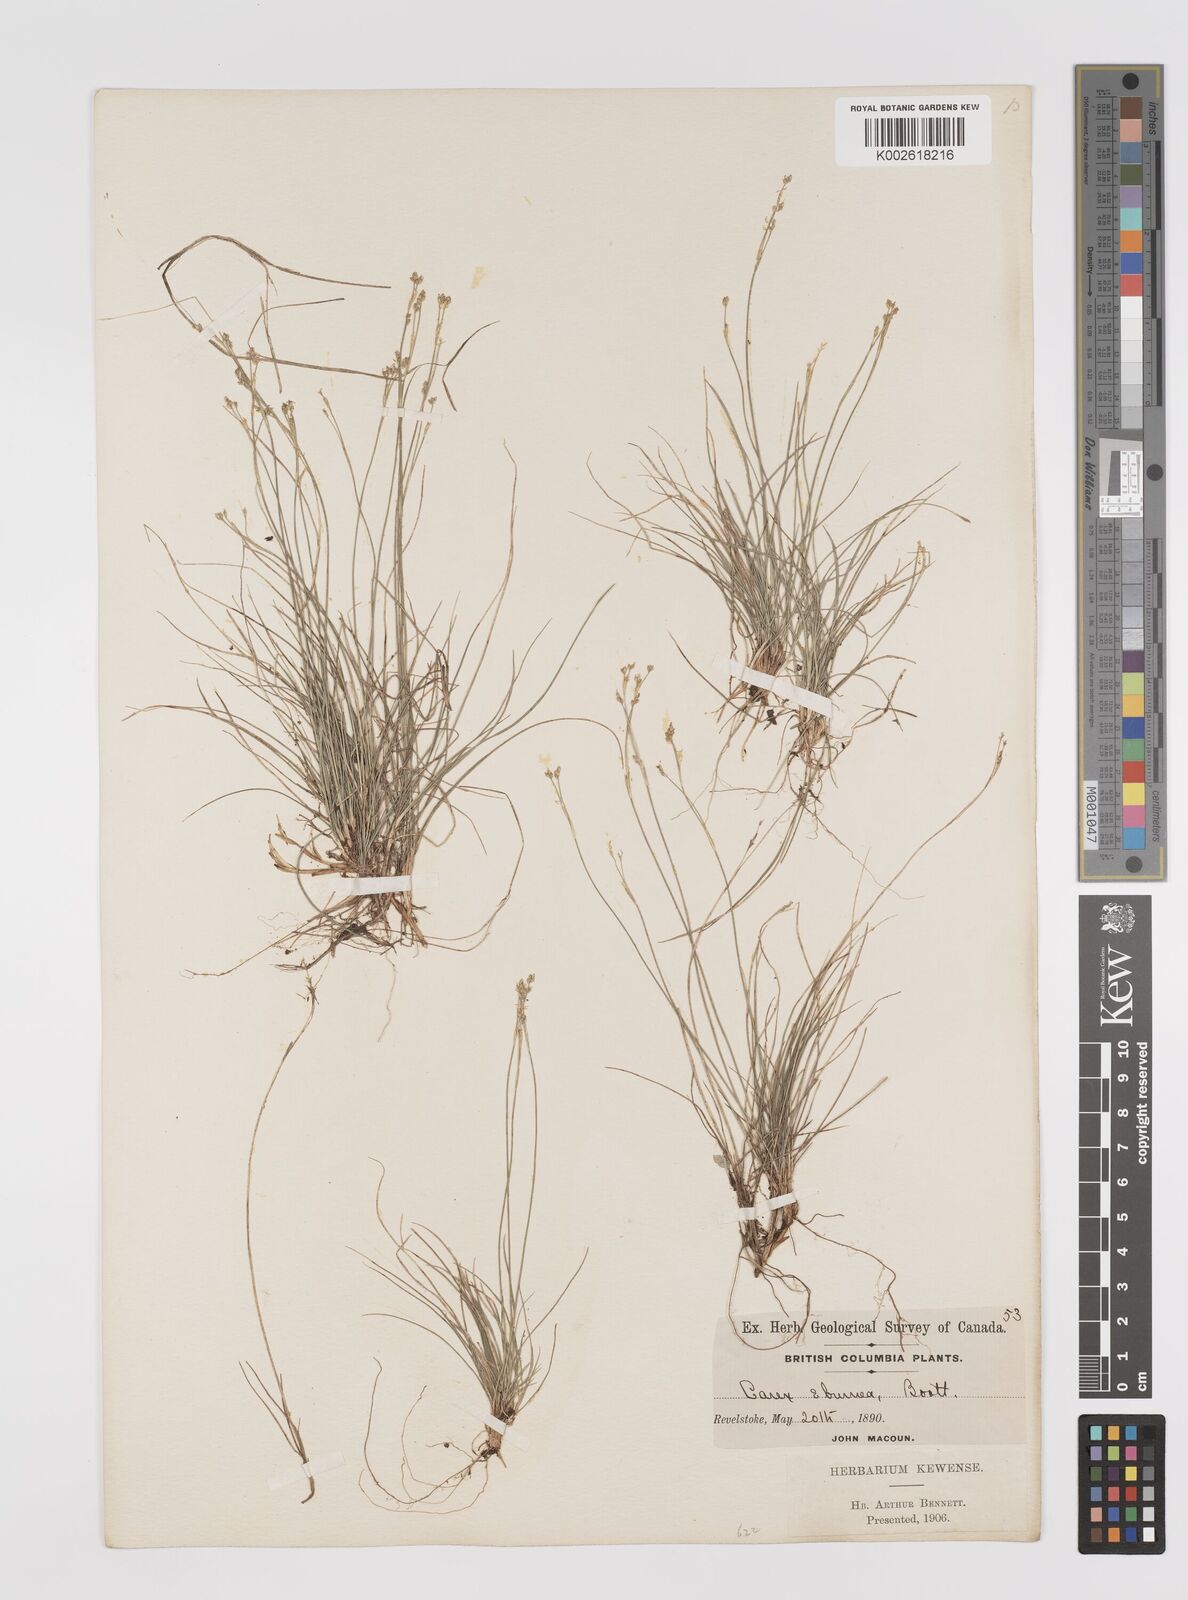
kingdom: Plantae
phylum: Tracheophyta
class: Liliopsida
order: Poales
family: Cyperaceae
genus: Carex
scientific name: Carex eburnea
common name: Bristle-leaved sedge
